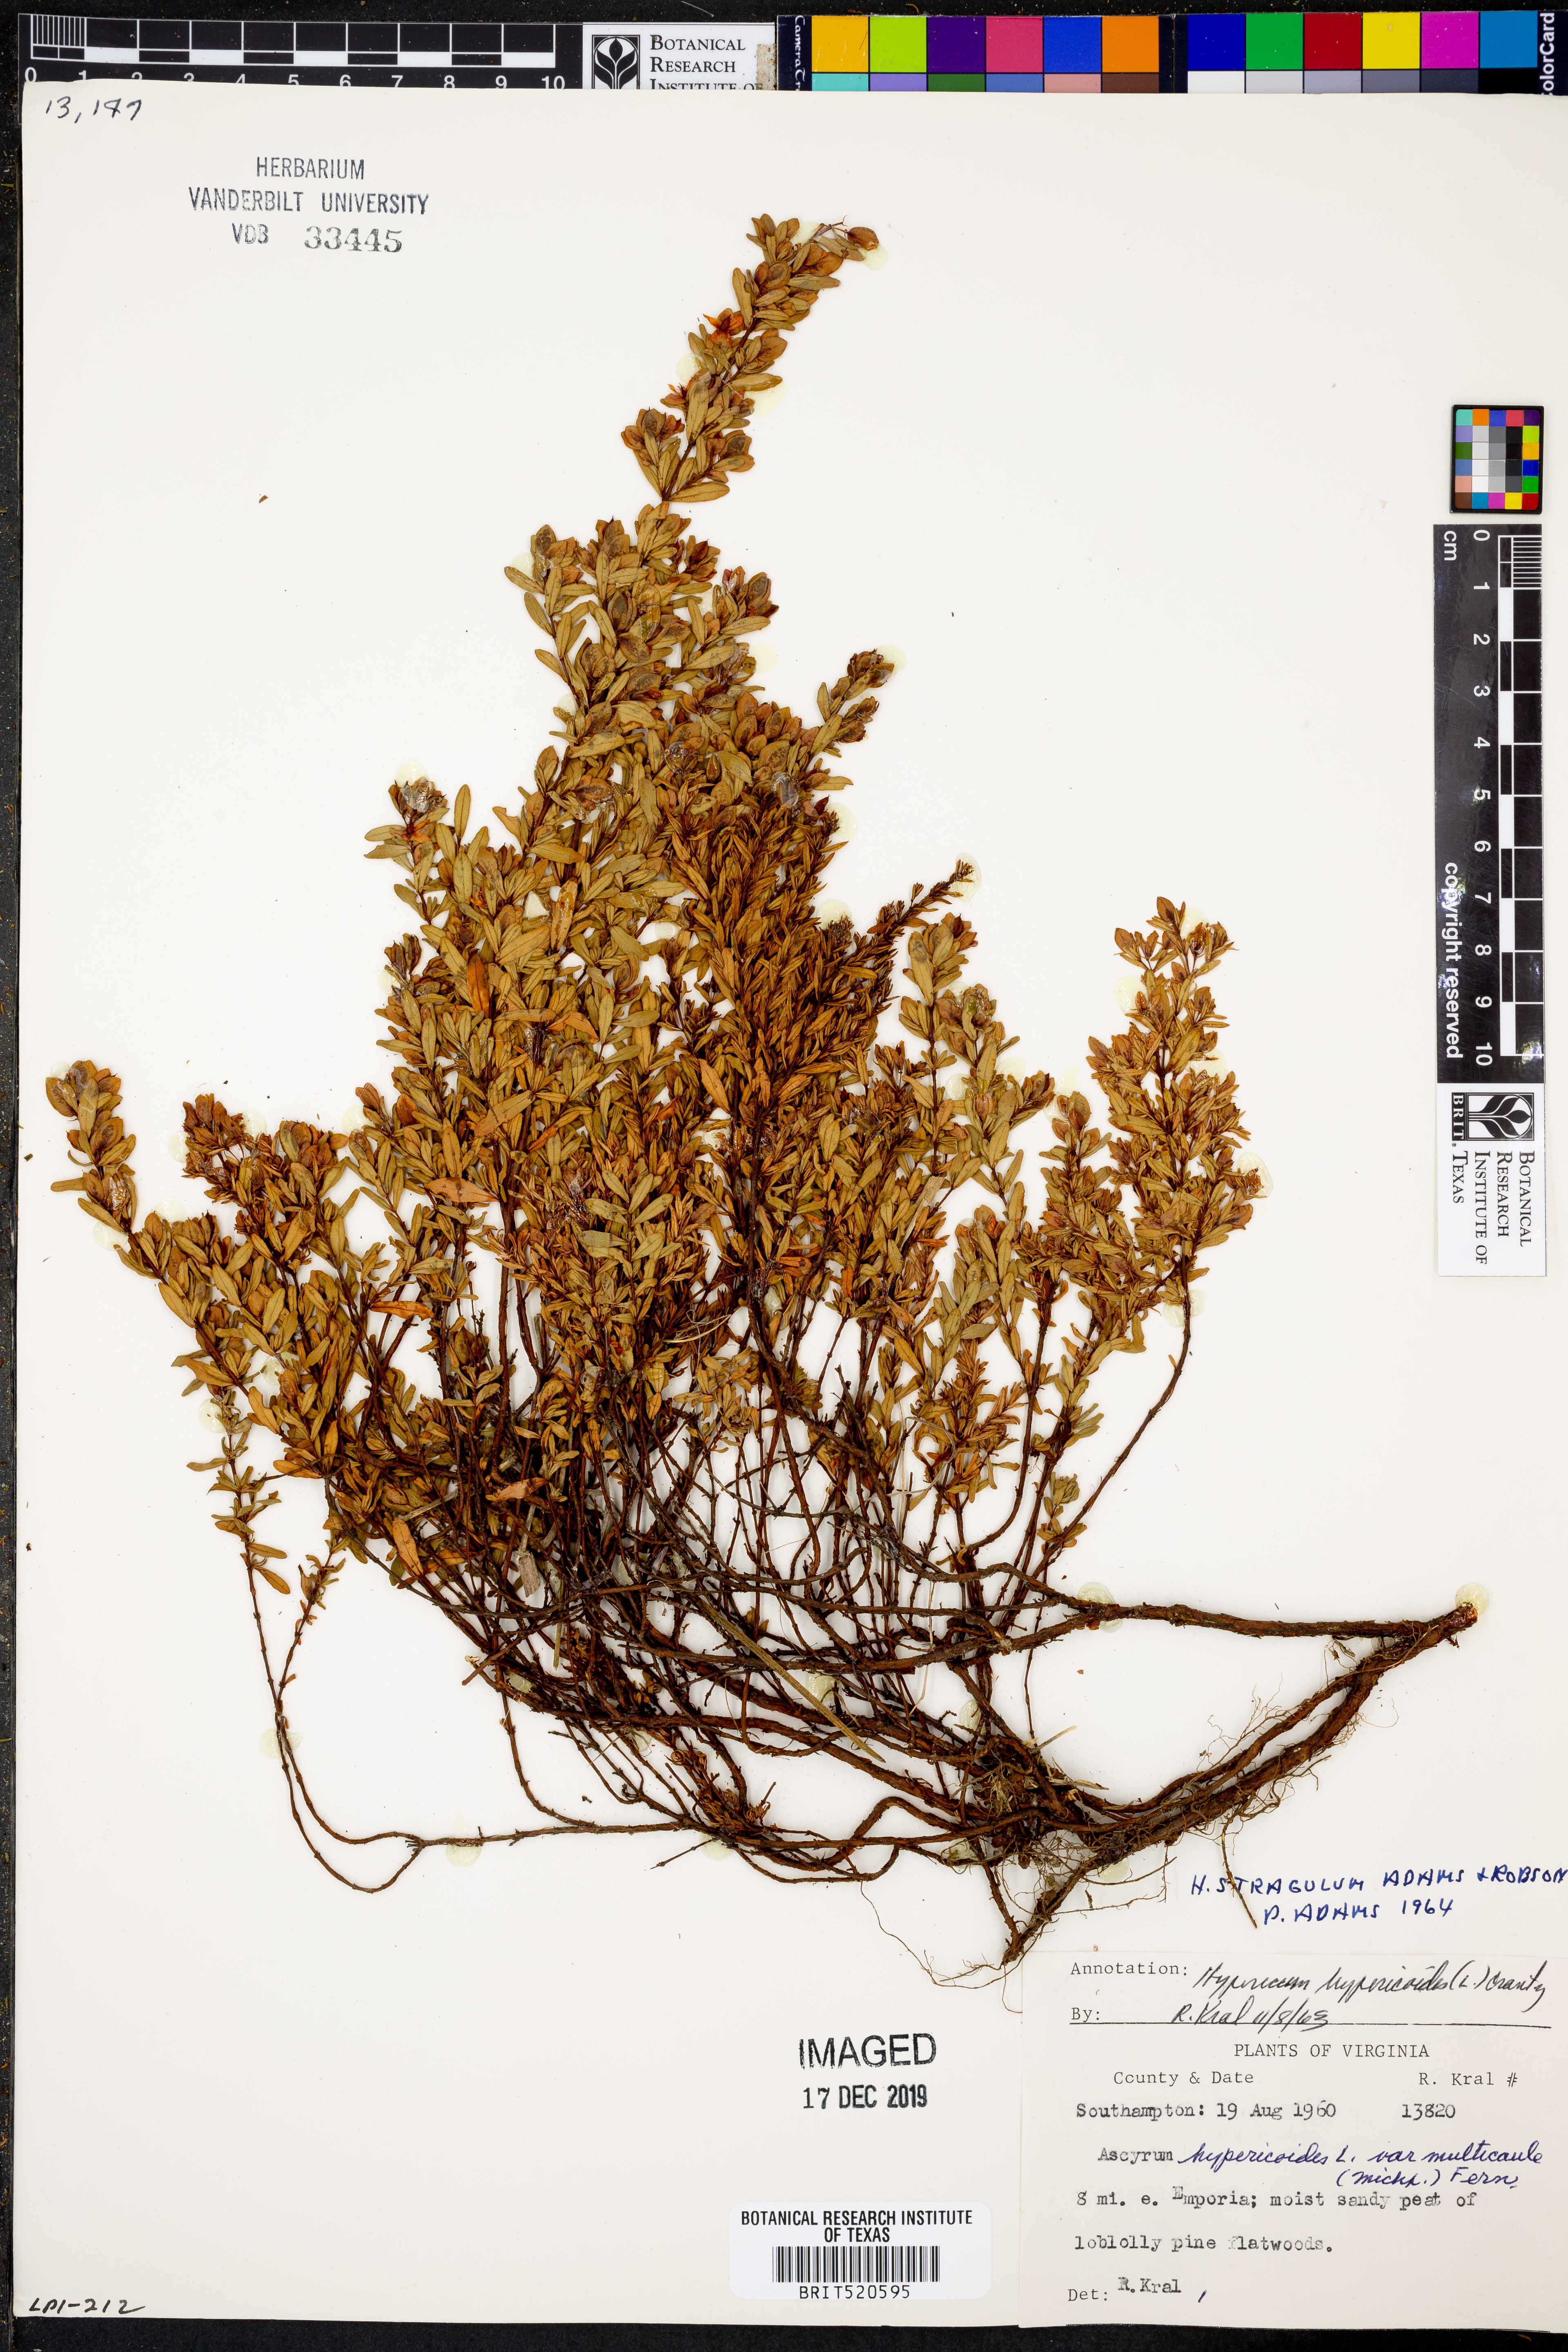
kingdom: Plantae
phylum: Tracheophyta
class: Magnoliopsida
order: Malpighiales
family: Hypericaceae
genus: Hypericum
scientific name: Hypericum hypericoides
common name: St. andrew's cross
